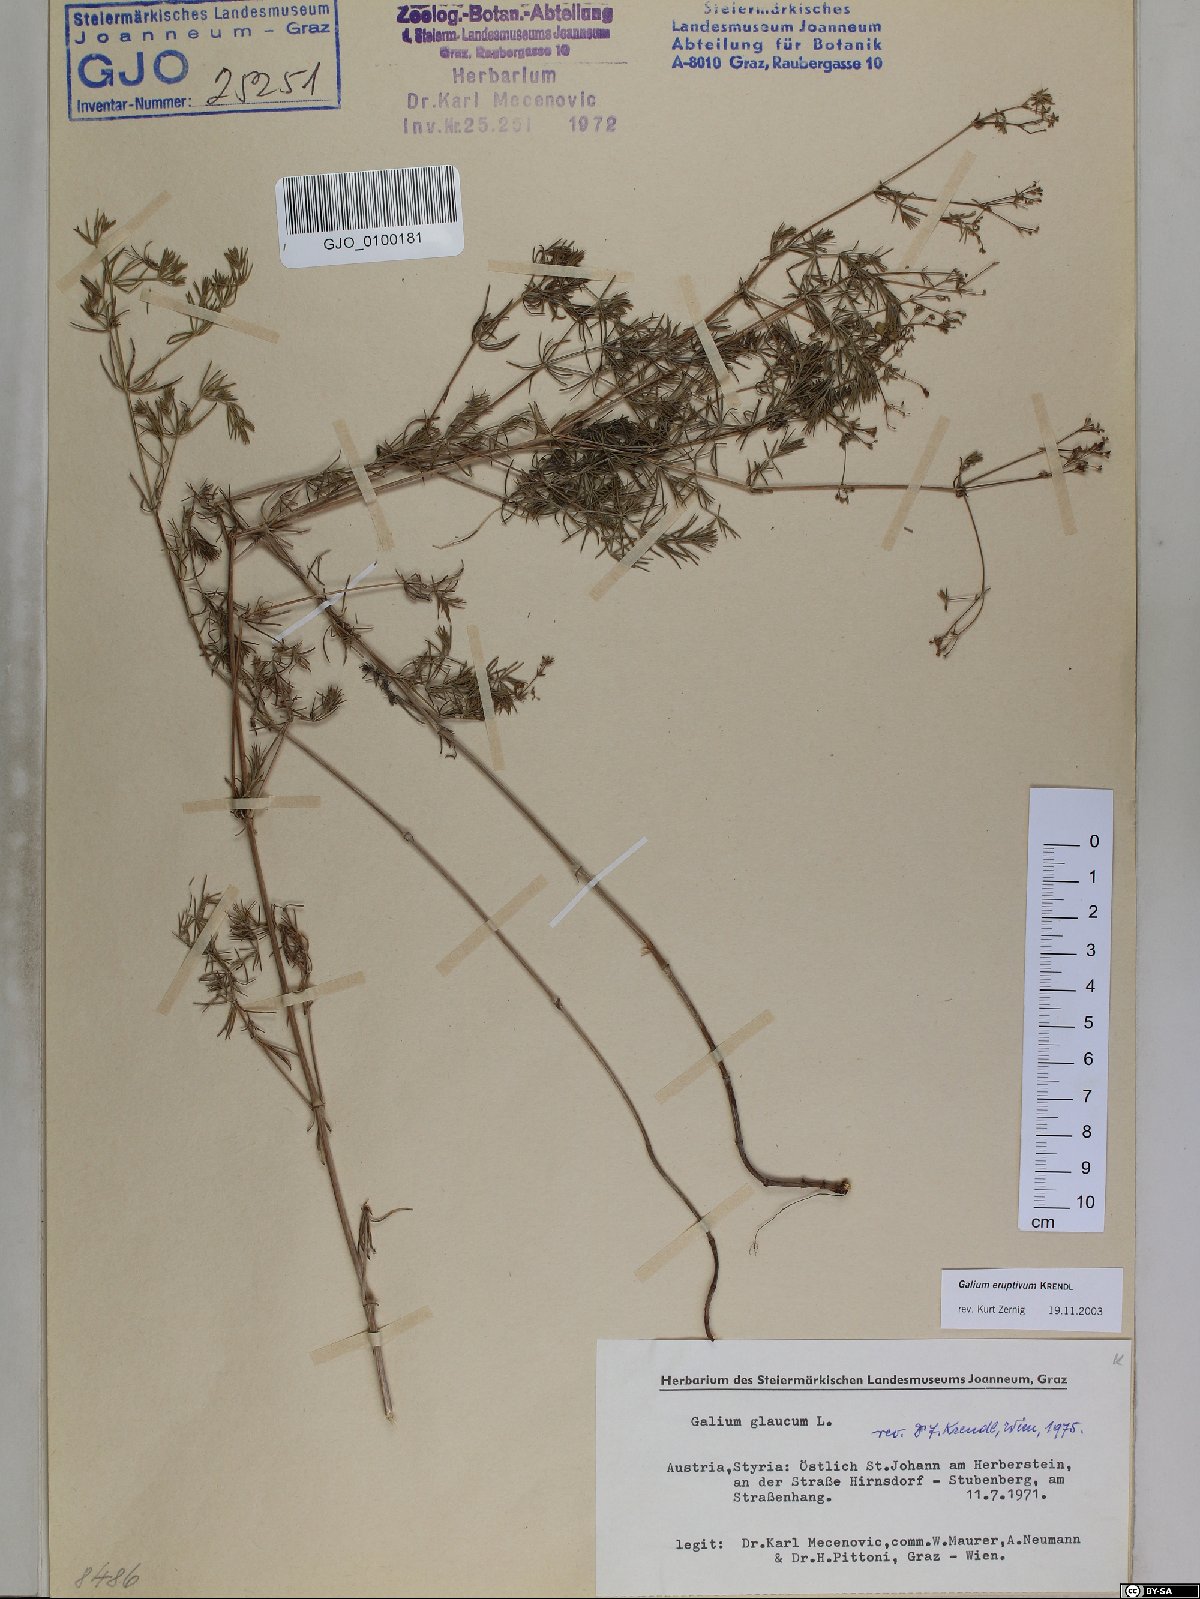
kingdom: Plantae
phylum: Tracheophyta
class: Magnoliopsida
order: Gentianales
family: Rubiaceae
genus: Galium
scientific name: Galium eruptivum
